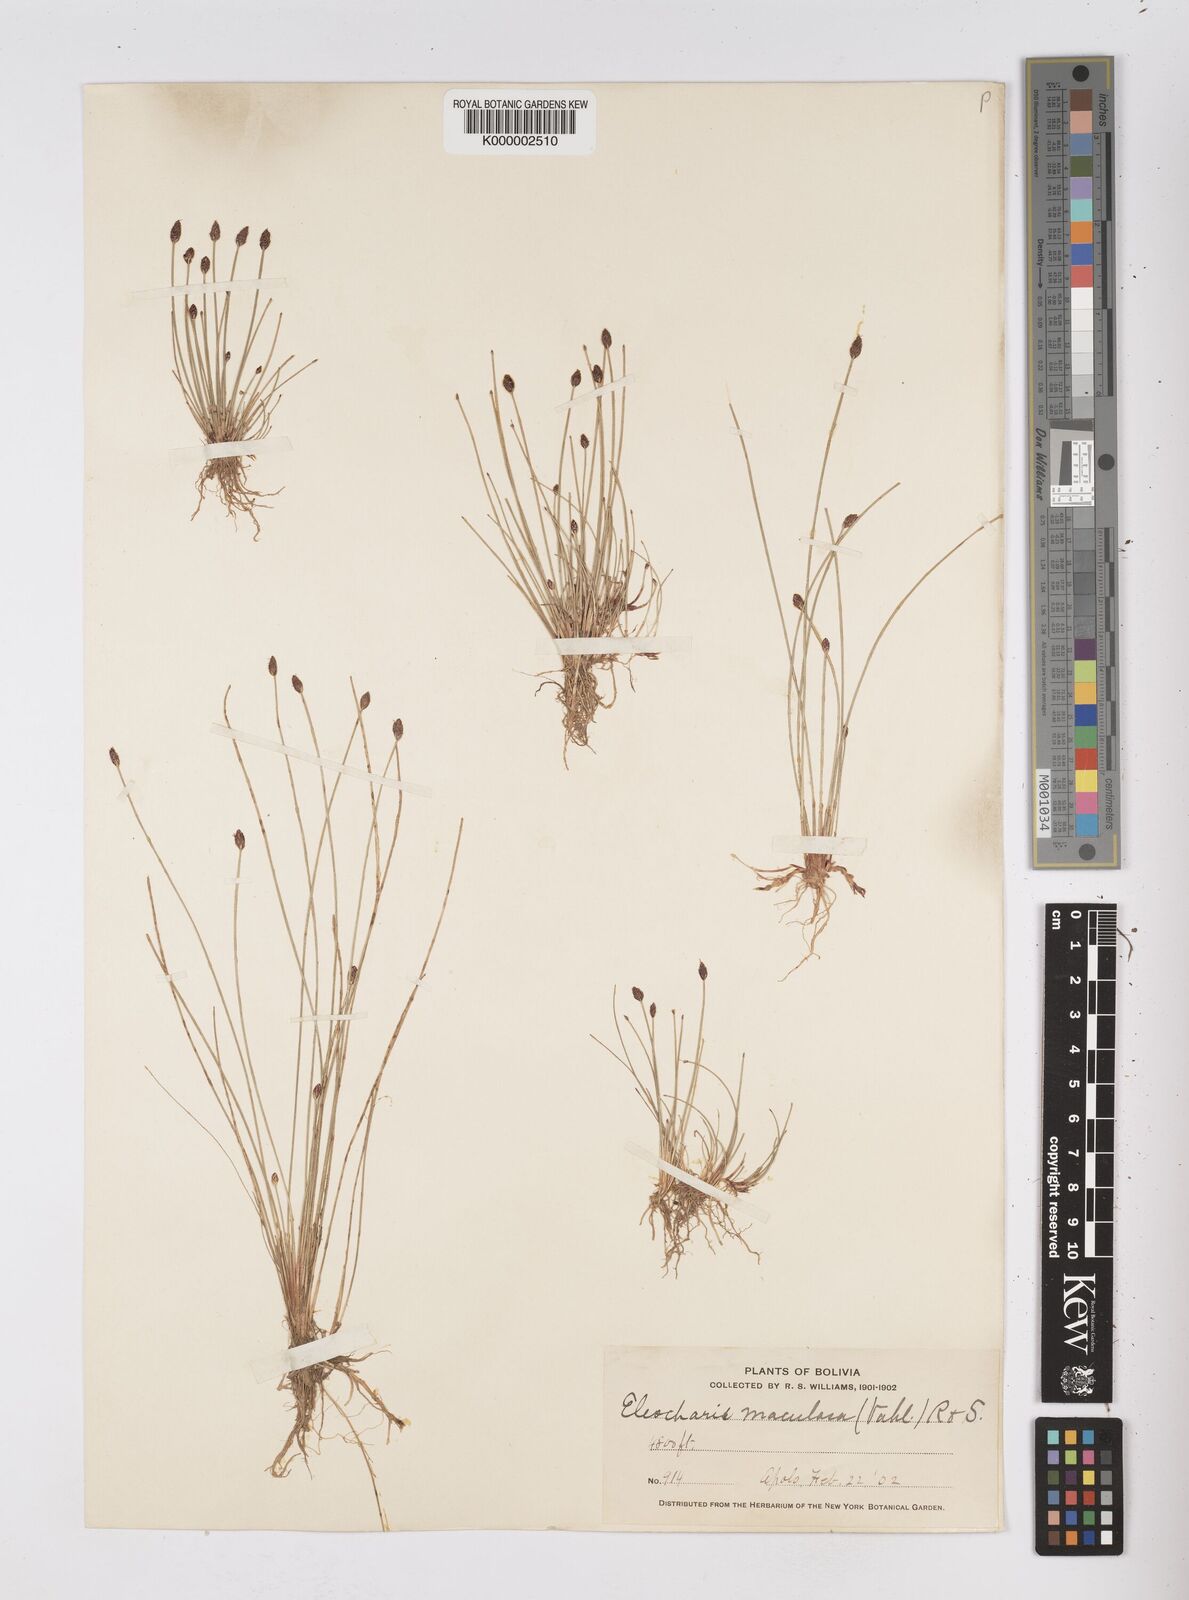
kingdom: Plantae
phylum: Tracheophyta
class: Liliopsida
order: Poales
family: Cyperaceae
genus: Eleocharis
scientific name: Eleocharis maculosa
